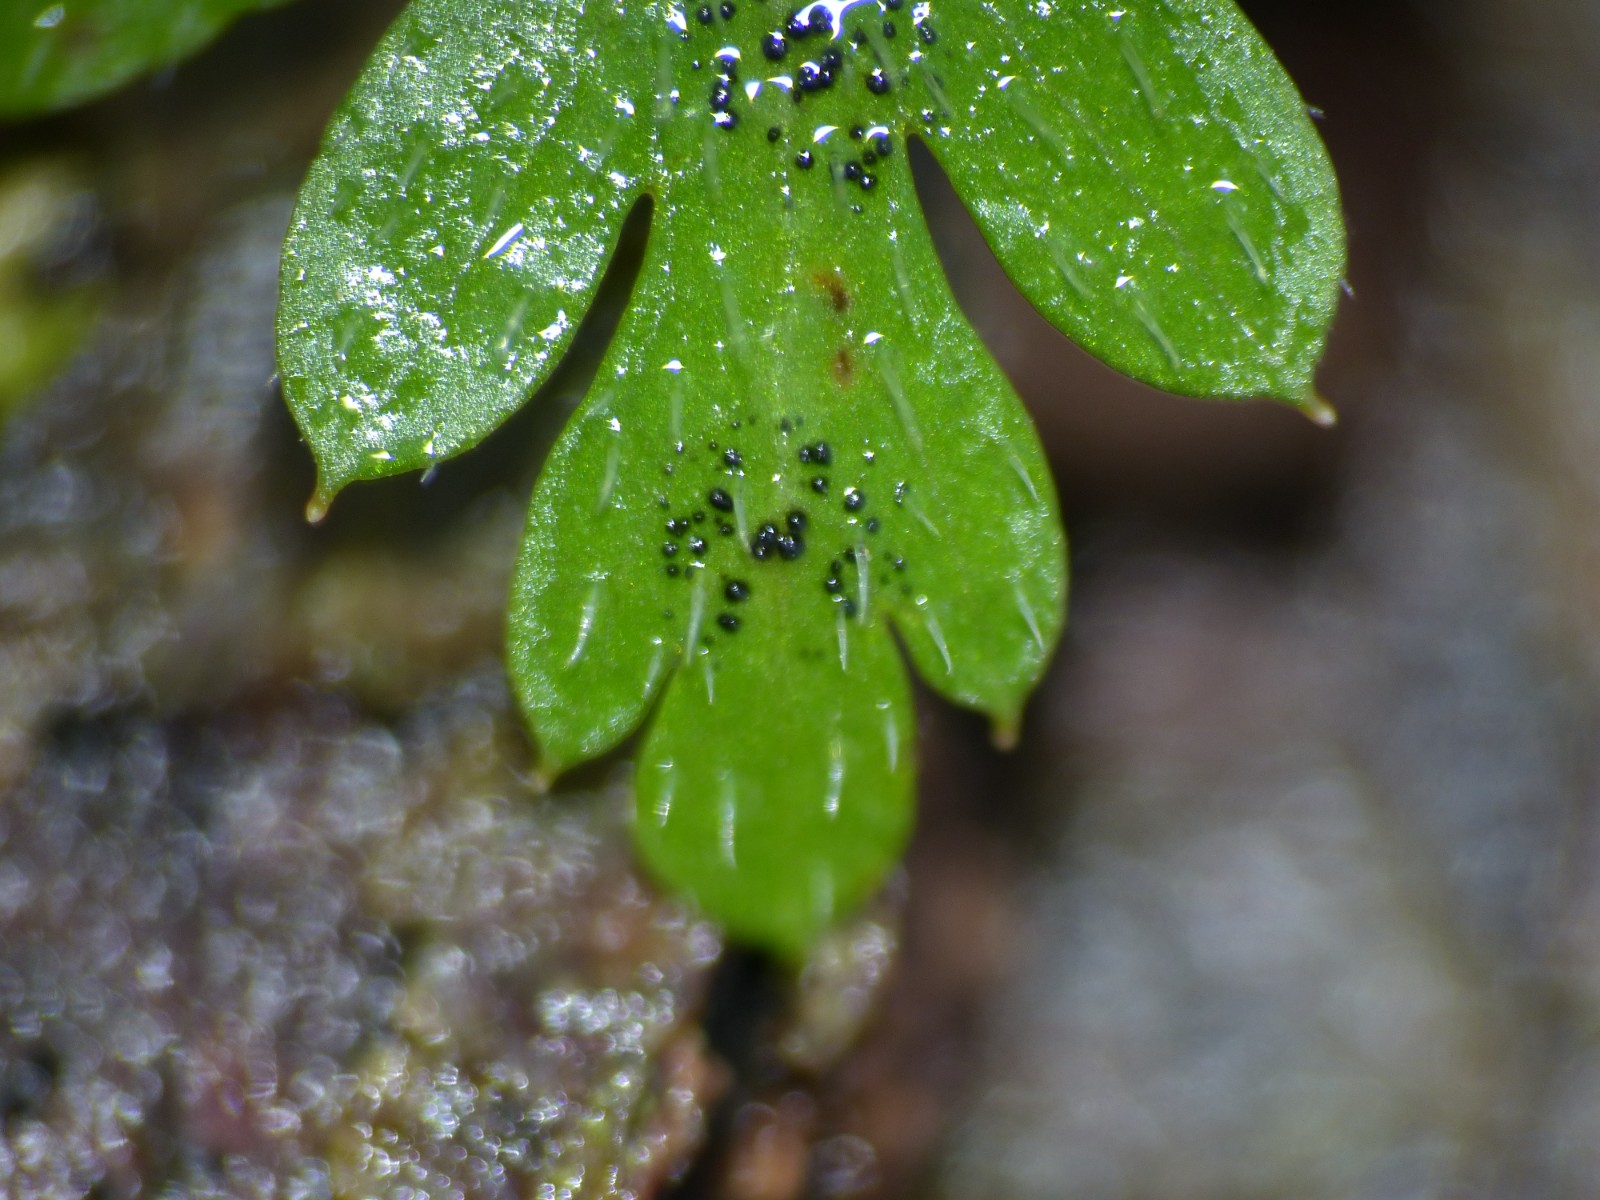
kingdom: Fungi
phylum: Ascomycota
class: Dothideomycetes
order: Venturiales
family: Venturiaceae
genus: Coleroa
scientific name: Coleroa robertiani
